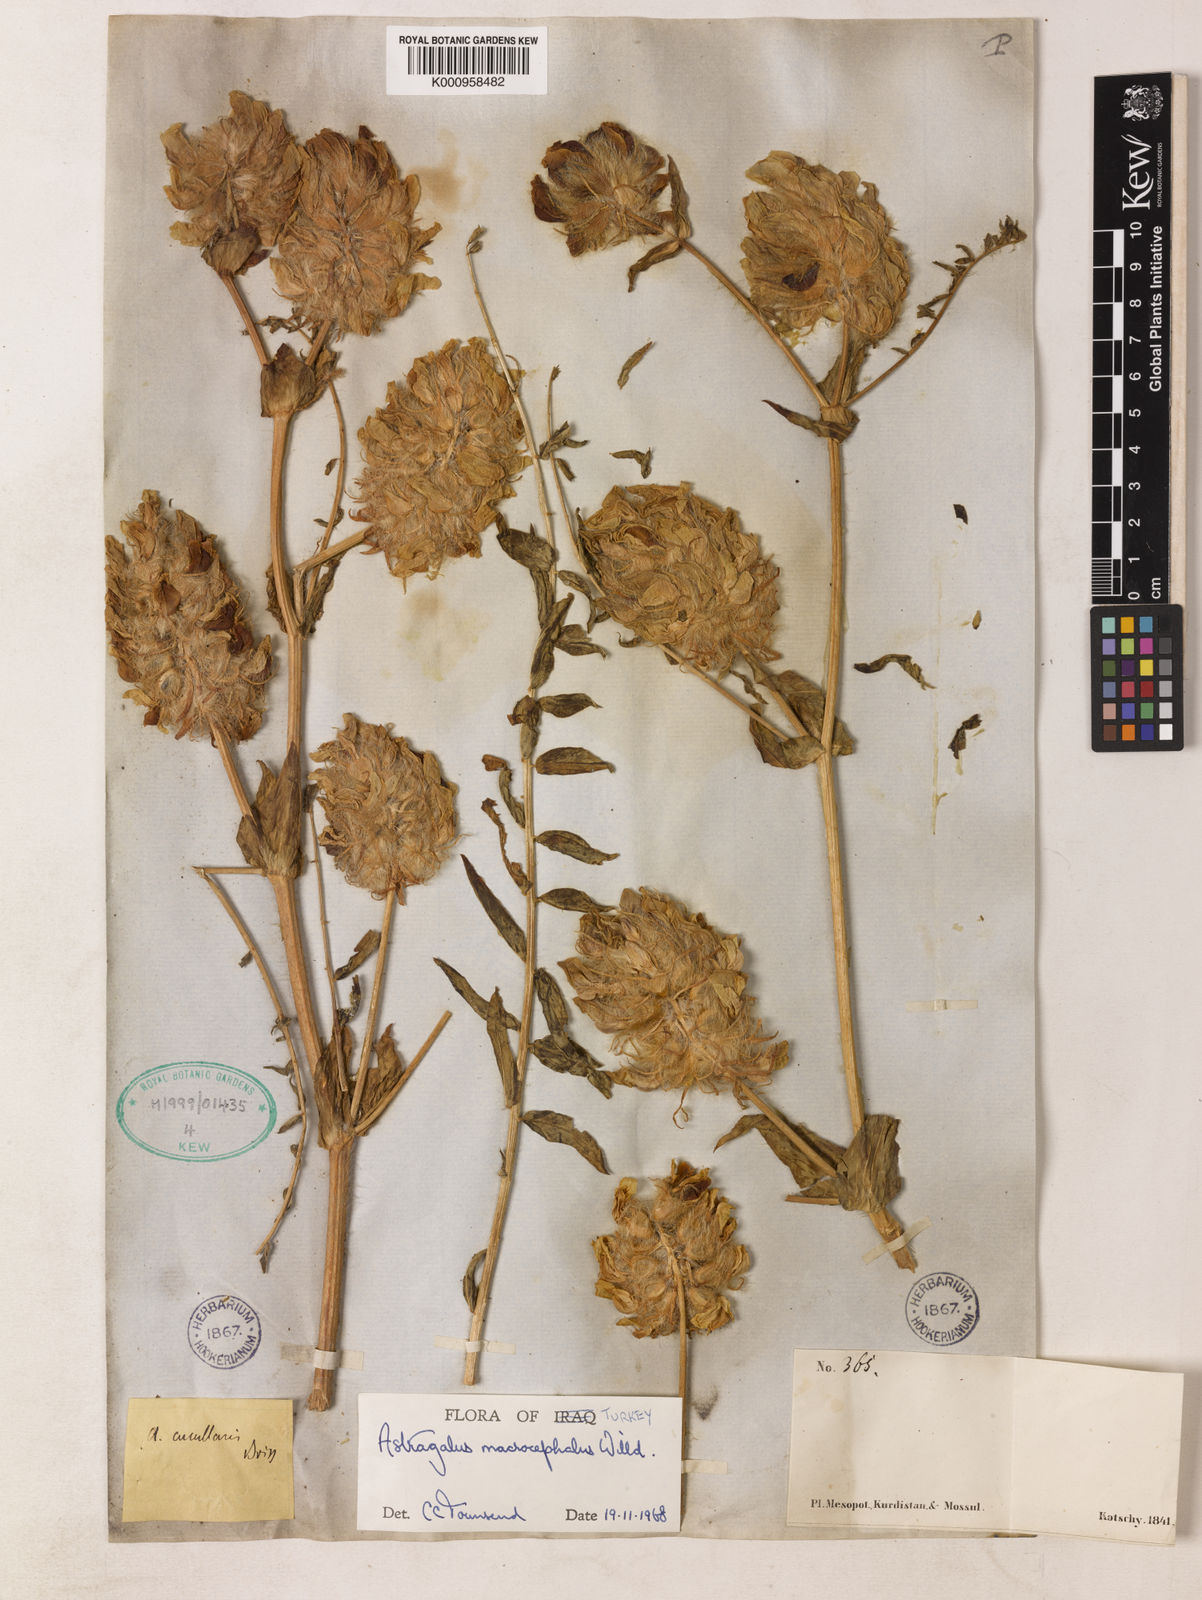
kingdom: Plantae
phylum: Tracheophyta
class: Magnoliopsida
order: Fabales
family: Fabaceae
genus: Astragalus
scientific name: Astragalus macrocephalus
